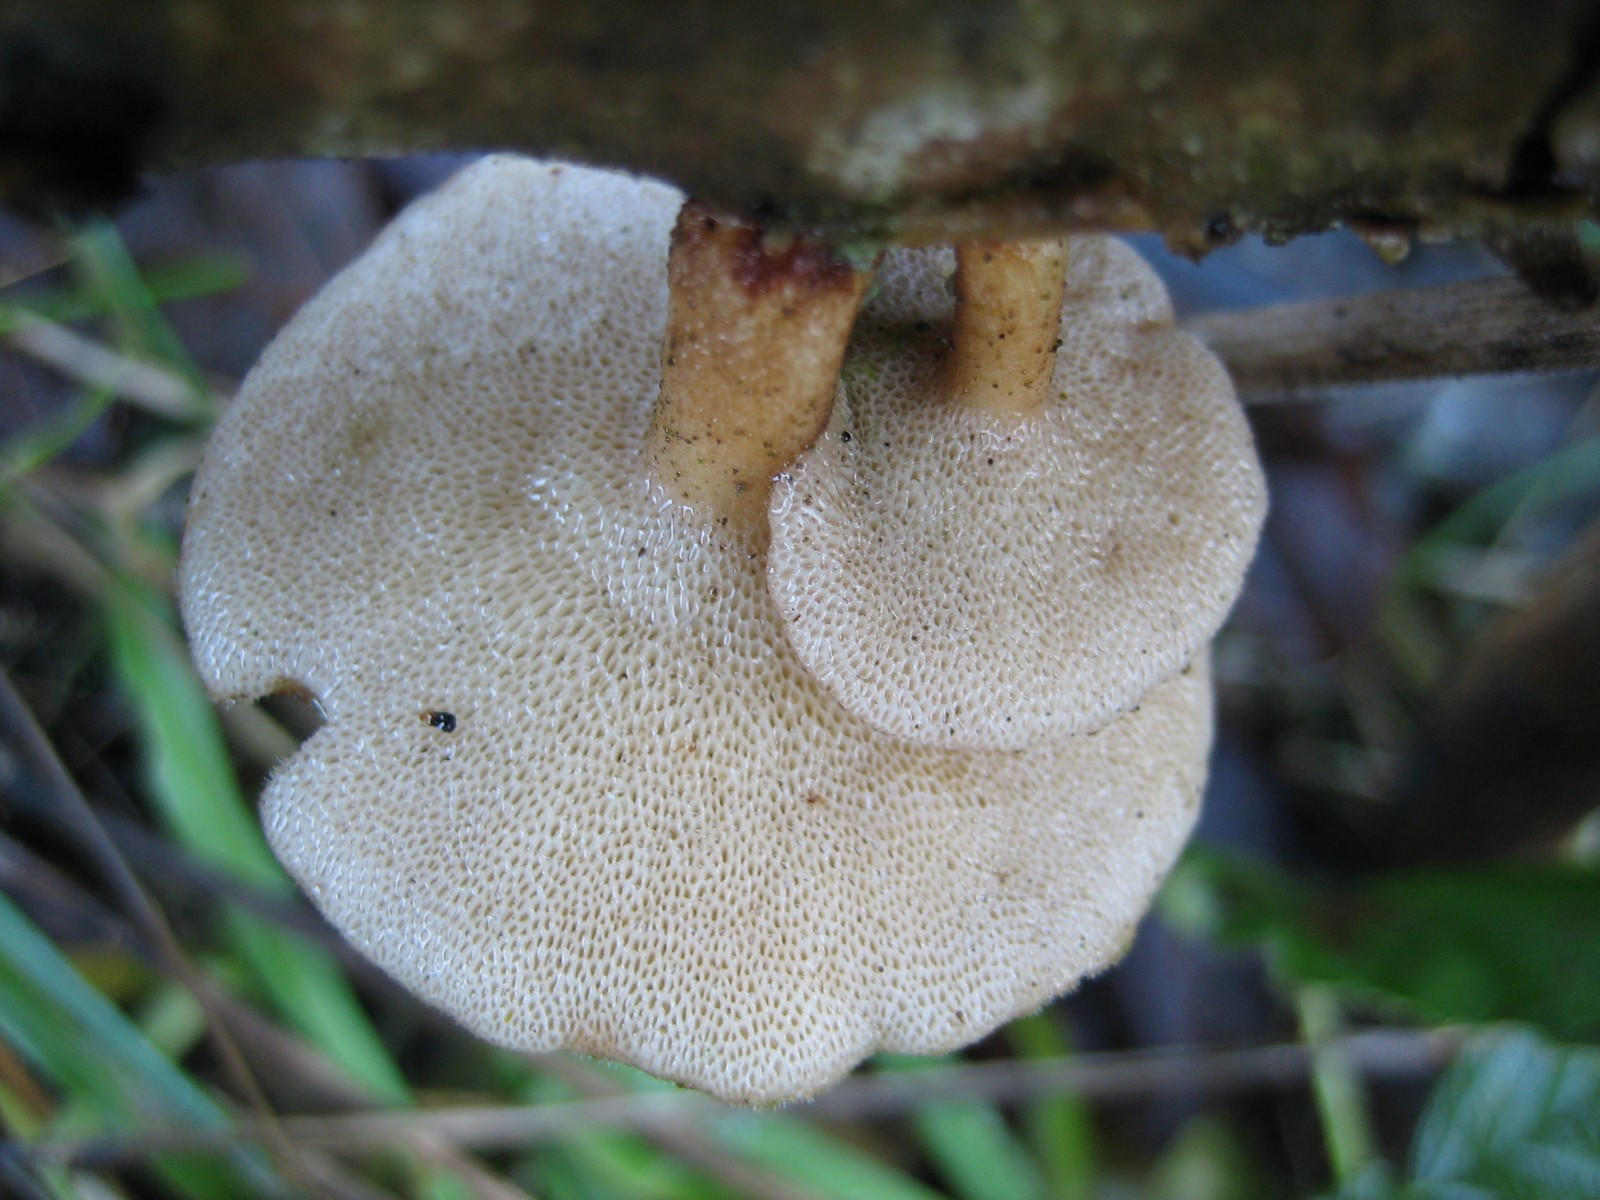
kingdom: Fungi
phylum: Basidiomycota
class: Agaricomycetes
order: Polyporales
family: Polyporaceae
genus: Lentinus
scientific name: Lentinus brumalis
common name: vinter-stilkporesvamp
